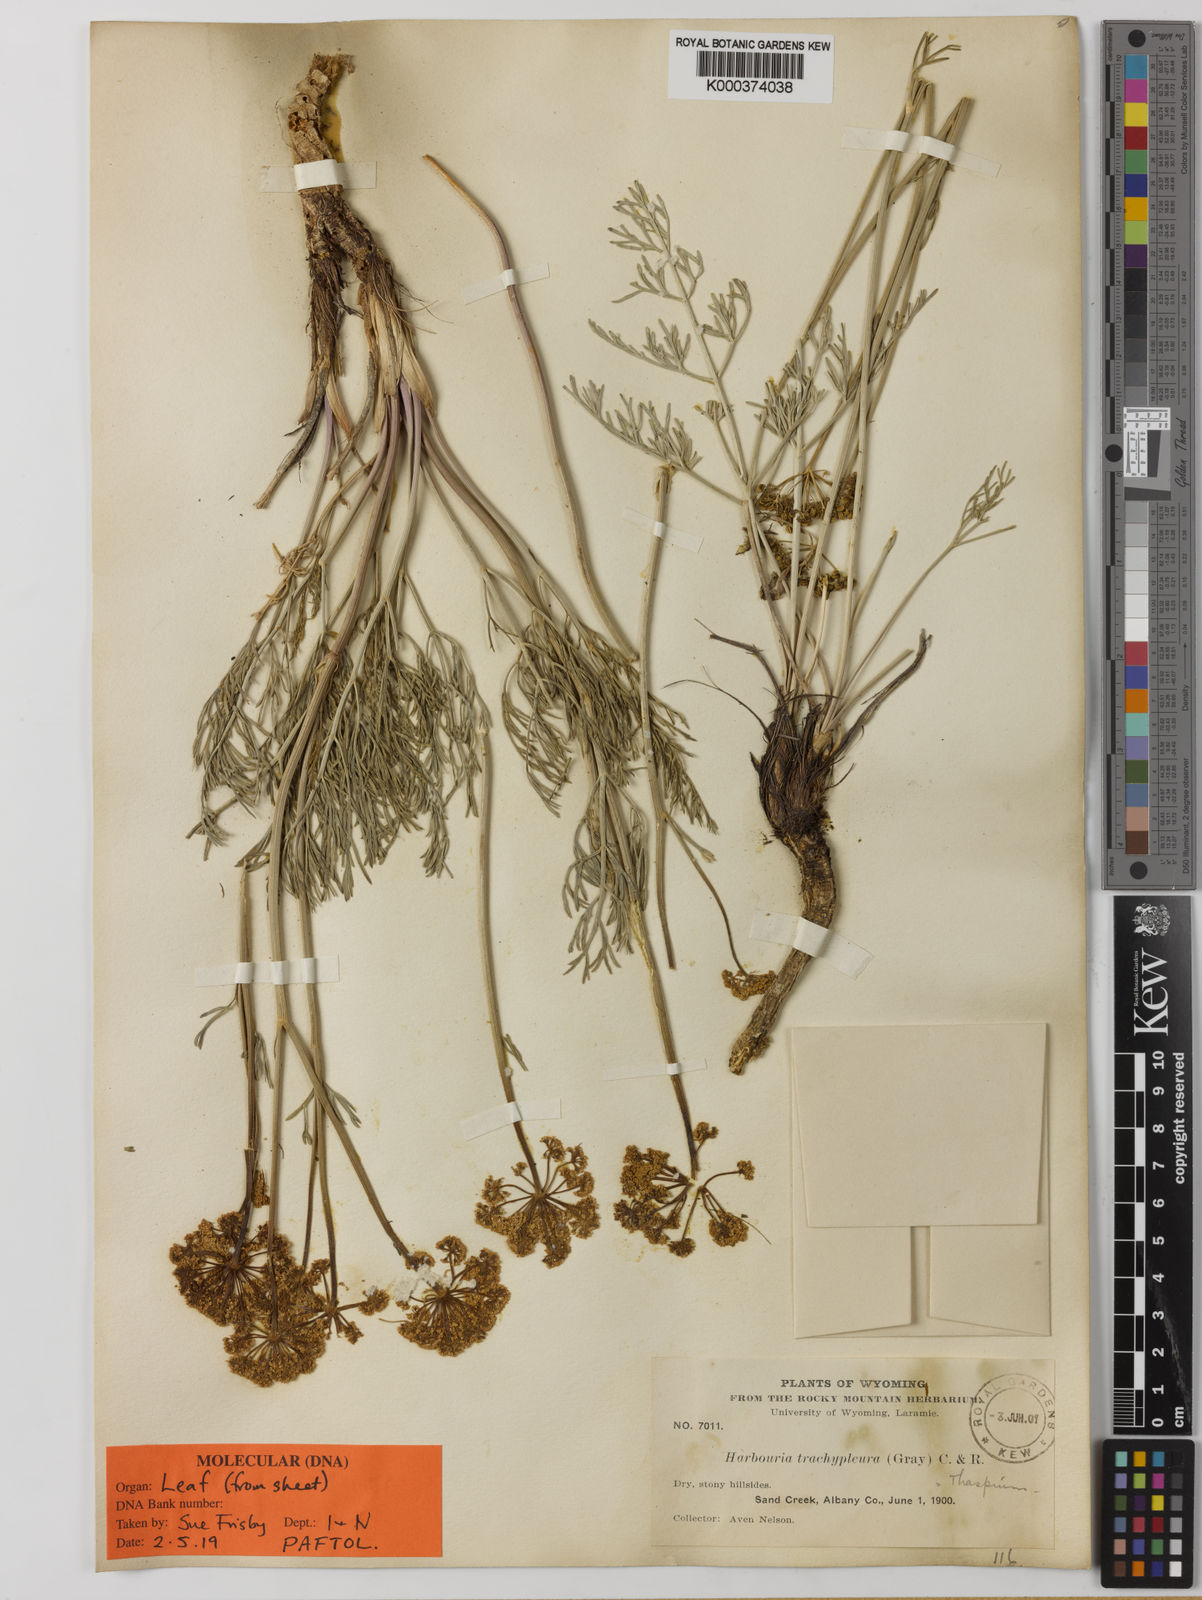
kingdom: Plantae
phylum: Tracheophyta
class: Magnoliopsida
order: Apiales
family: Apiaceae
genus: Harbouria
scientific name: Harbouria trachypleura
